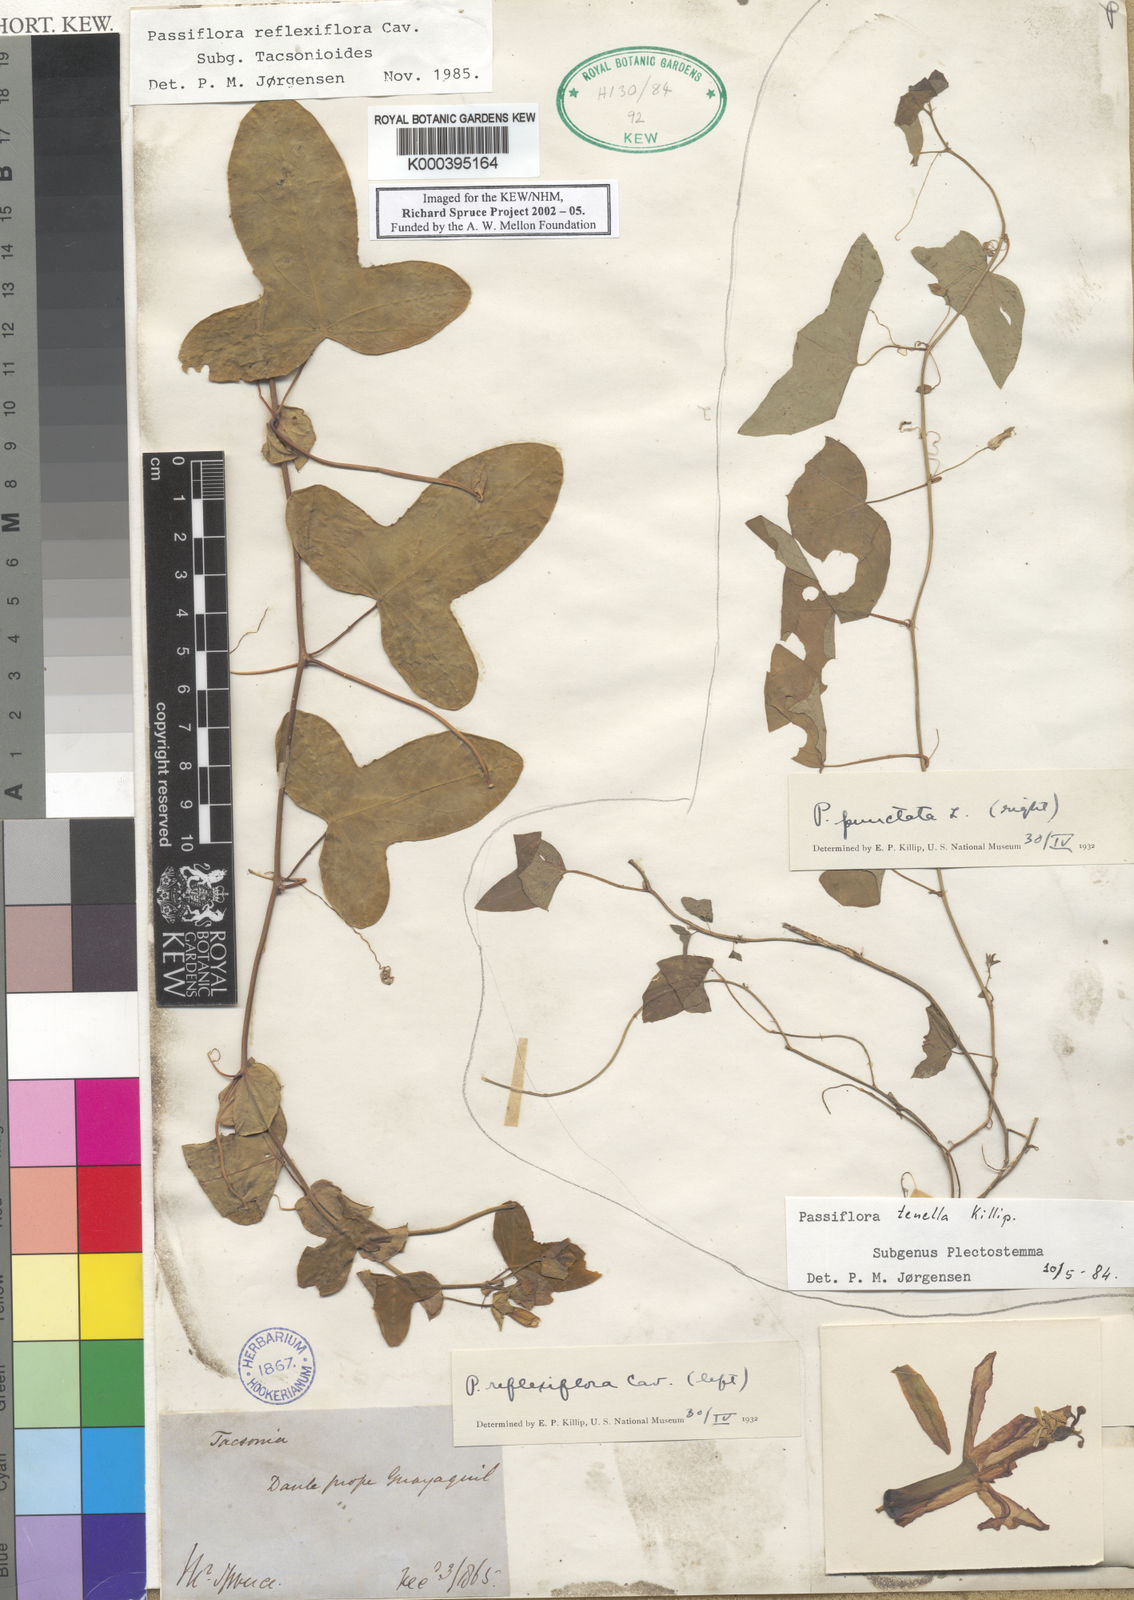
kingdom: Plantae
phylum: Tracheophyta
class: Magnoliopsida
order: Malpighiales
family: Passifloraceae
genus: Passiflora
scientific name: Passiflora reflexiflora
